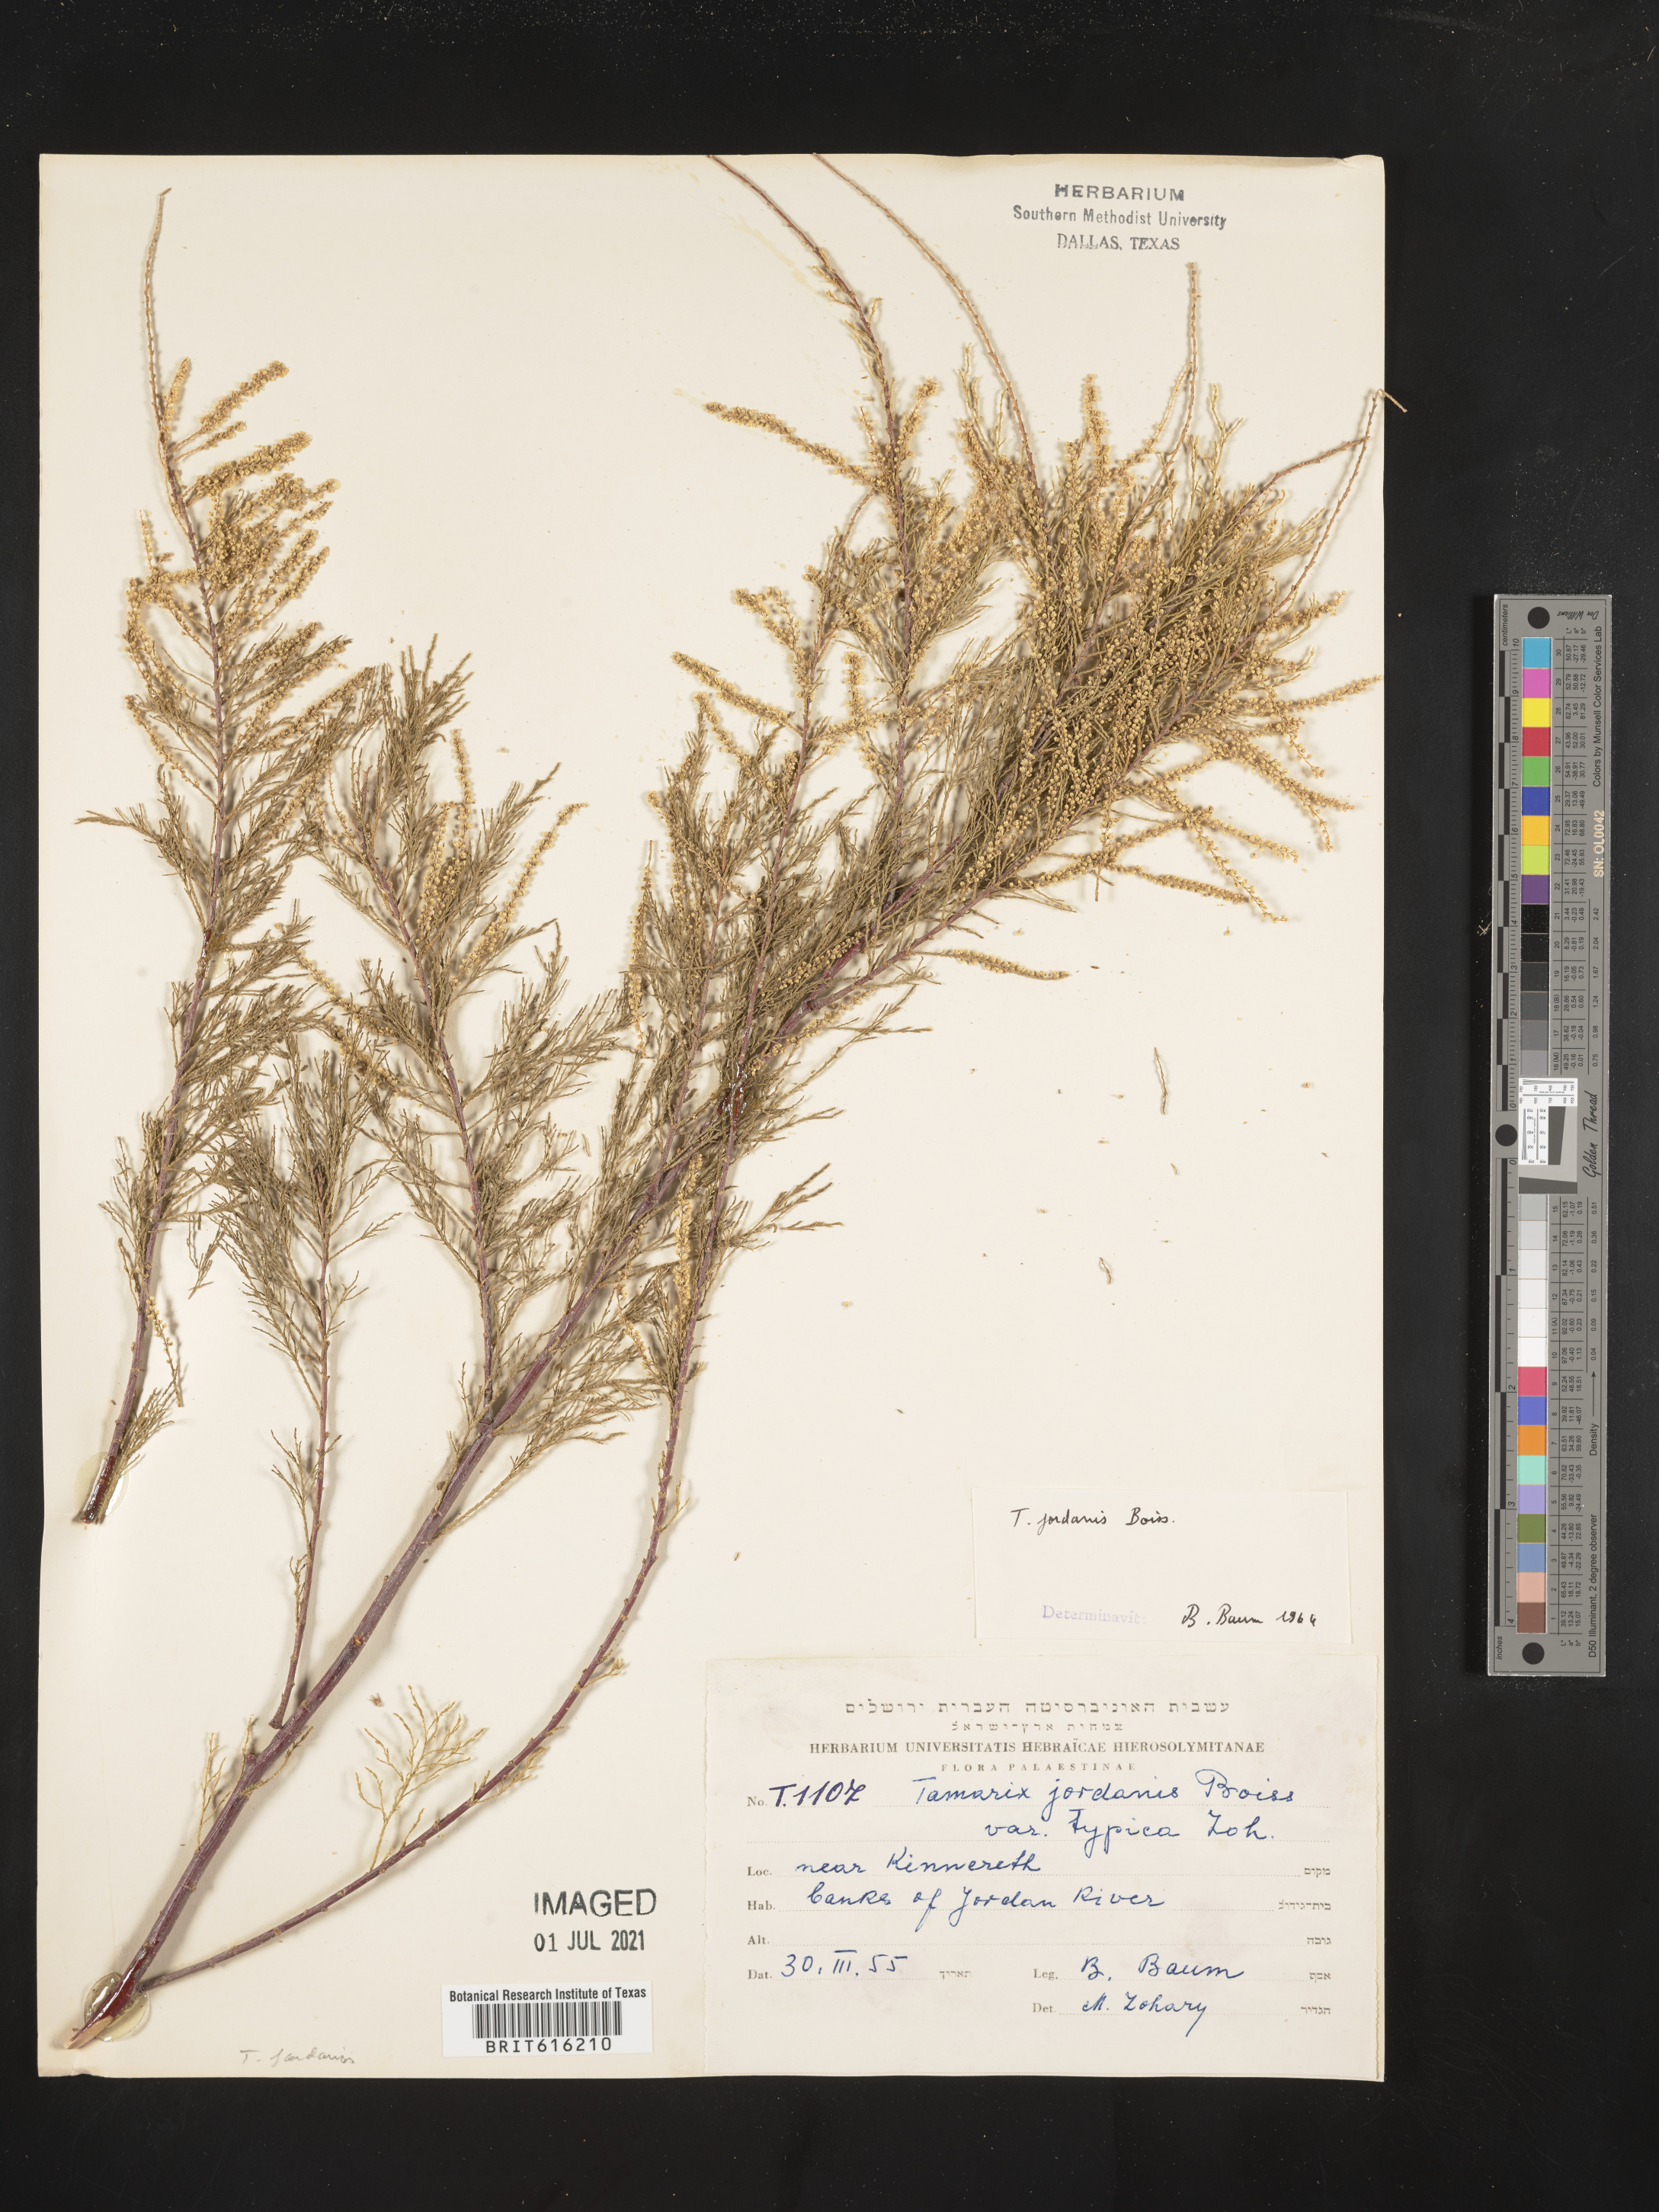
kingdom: Plantae
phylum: Tracheophyta
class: Magnoliopsida
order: Caryophyllales
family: Tamaricaceae
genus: Tamarix
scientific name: Tamarix jordanis
